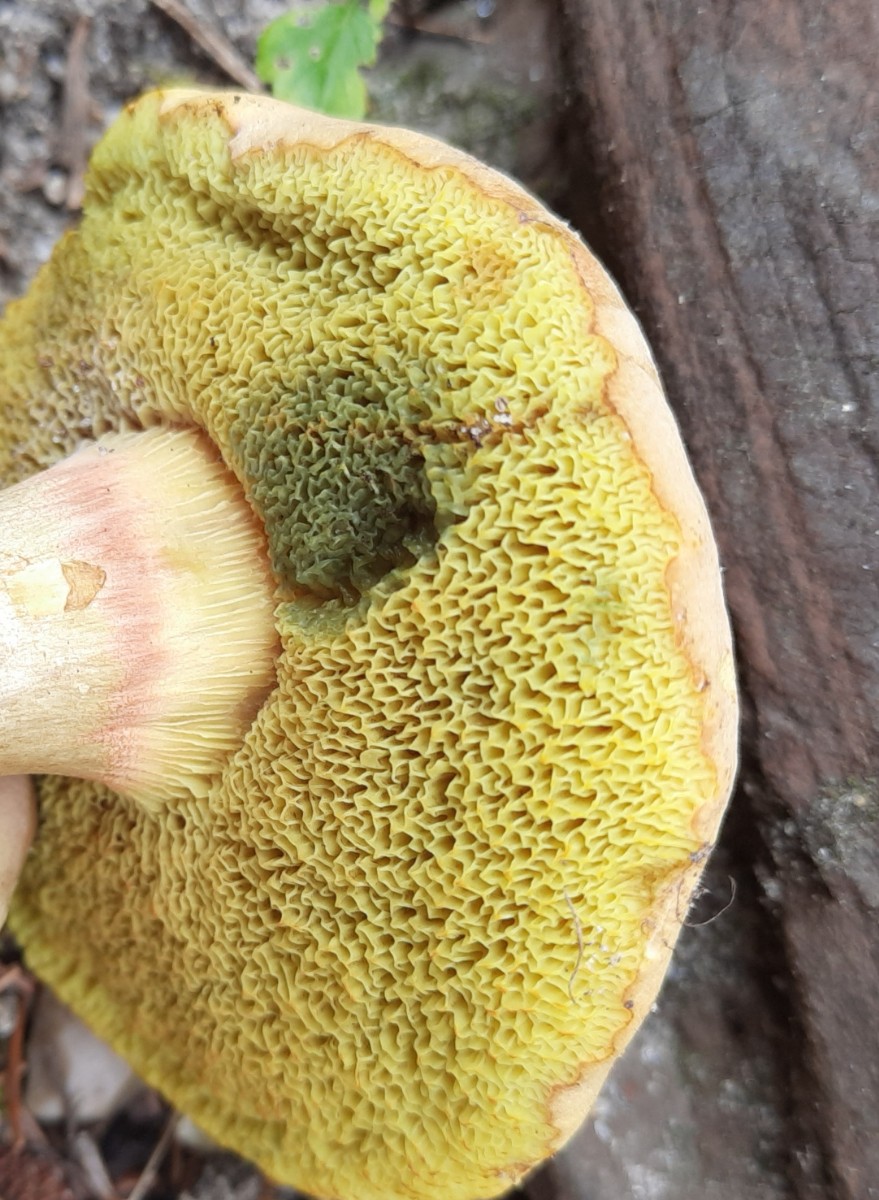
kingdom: Fungi
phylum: Basidiomycota
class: Agaricomycetes
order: Boletales
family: Boletaceae
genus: Hortiboletus
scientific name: Hortiboletus bubalinus
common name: aurora-rørhat
